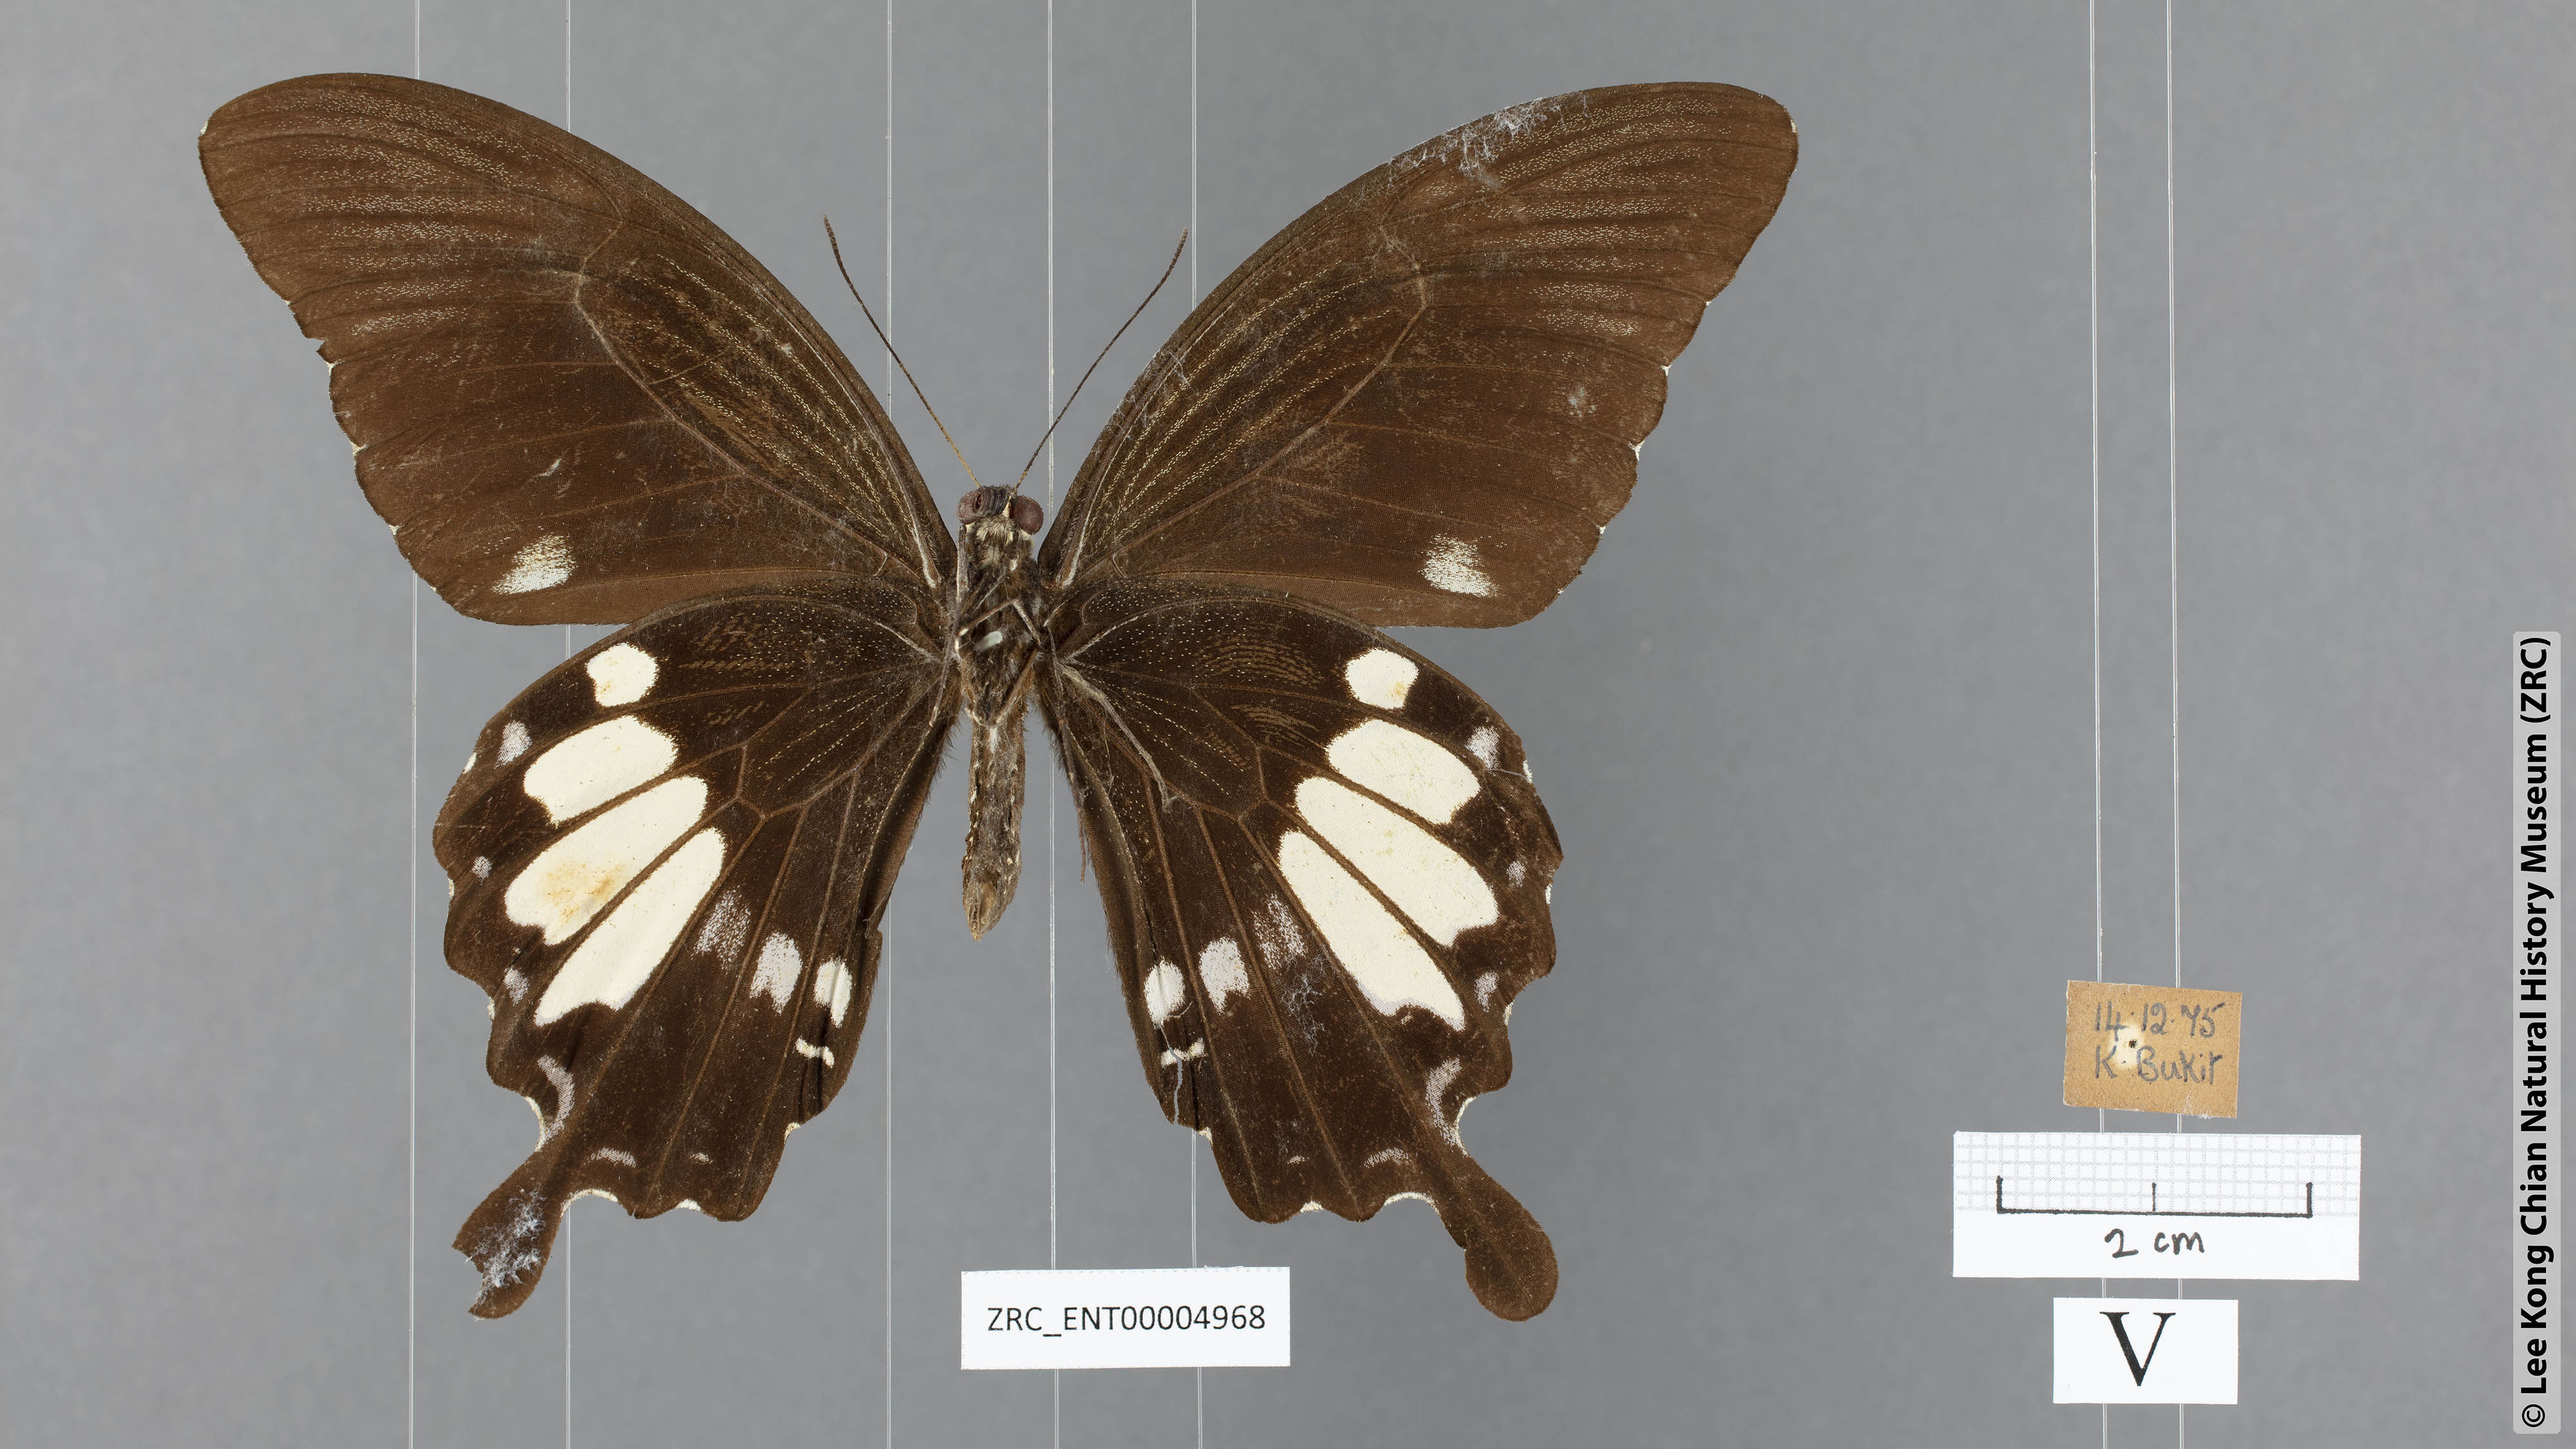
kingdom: Animalia
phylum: Arthropoda
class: Insecta
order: Lepidoptera
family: Papilionidae
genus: Papilio
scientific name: Papilio nephelus
